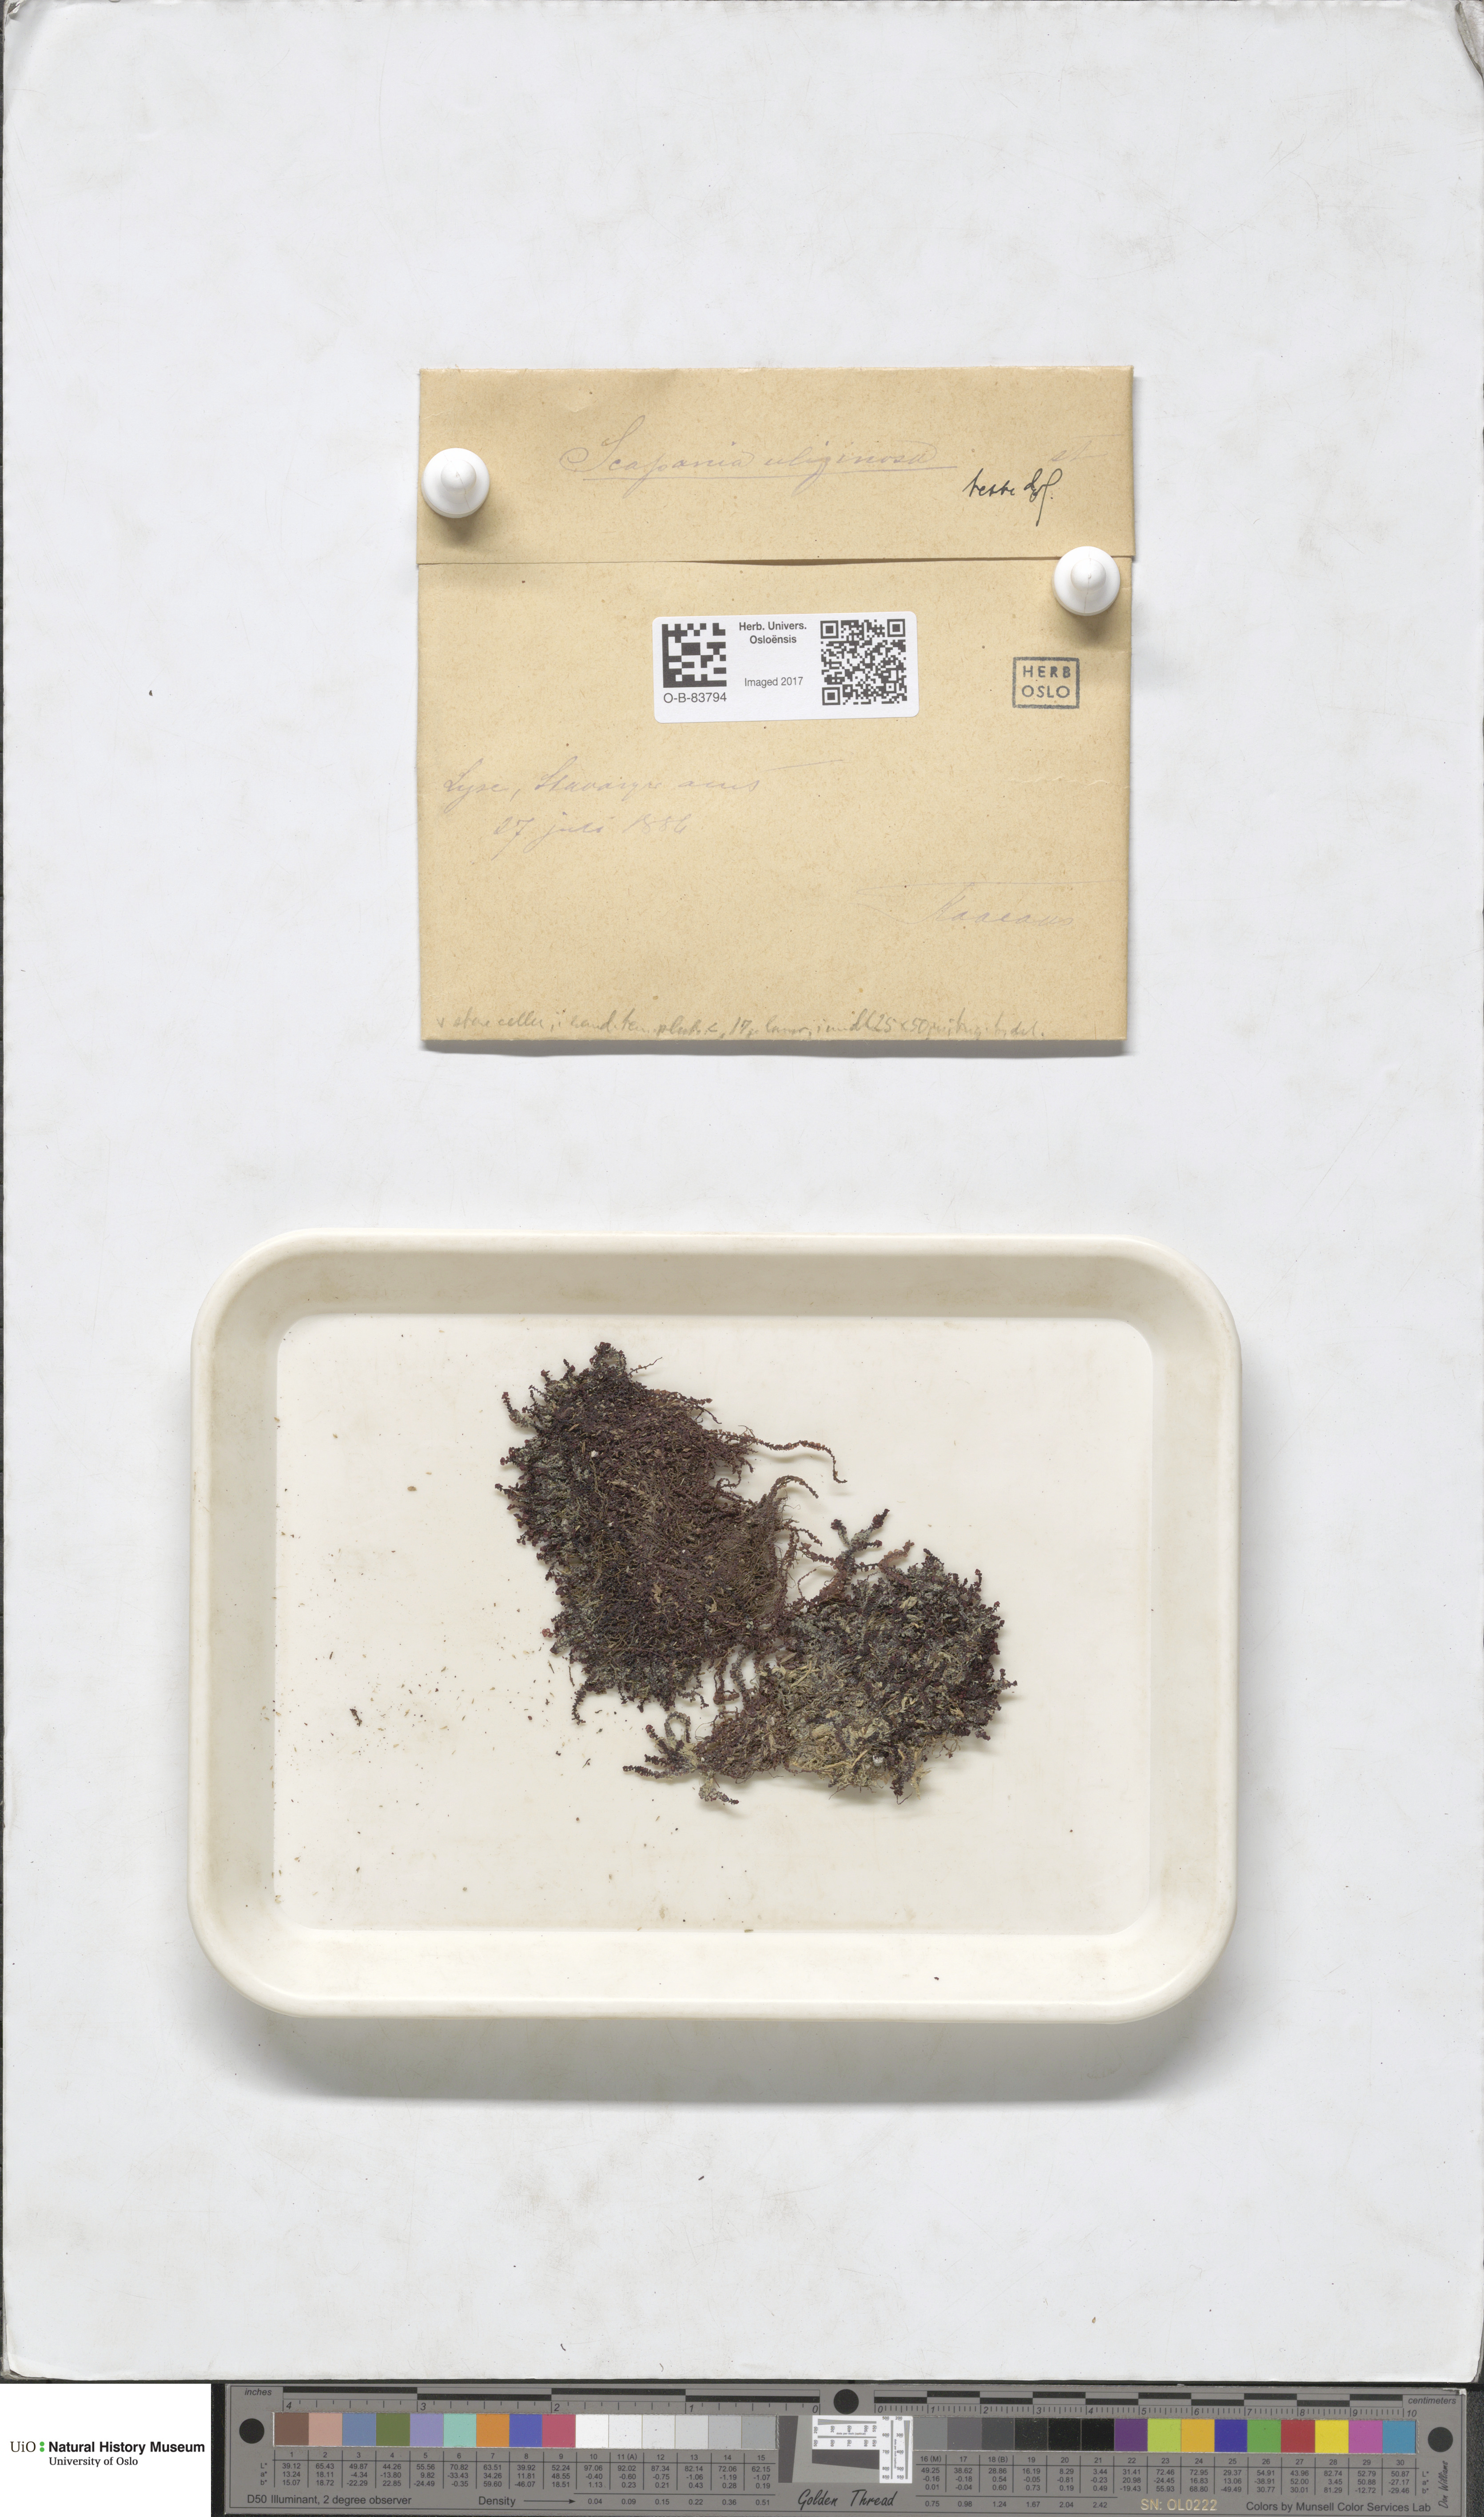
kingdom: Plantae
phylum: Marchantiophyta
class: Jungermanniopsida
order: Jungermanniales
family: Scapaniaceae
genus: Scapania
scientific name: Scapania uliginosa
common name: Marsh earwort
